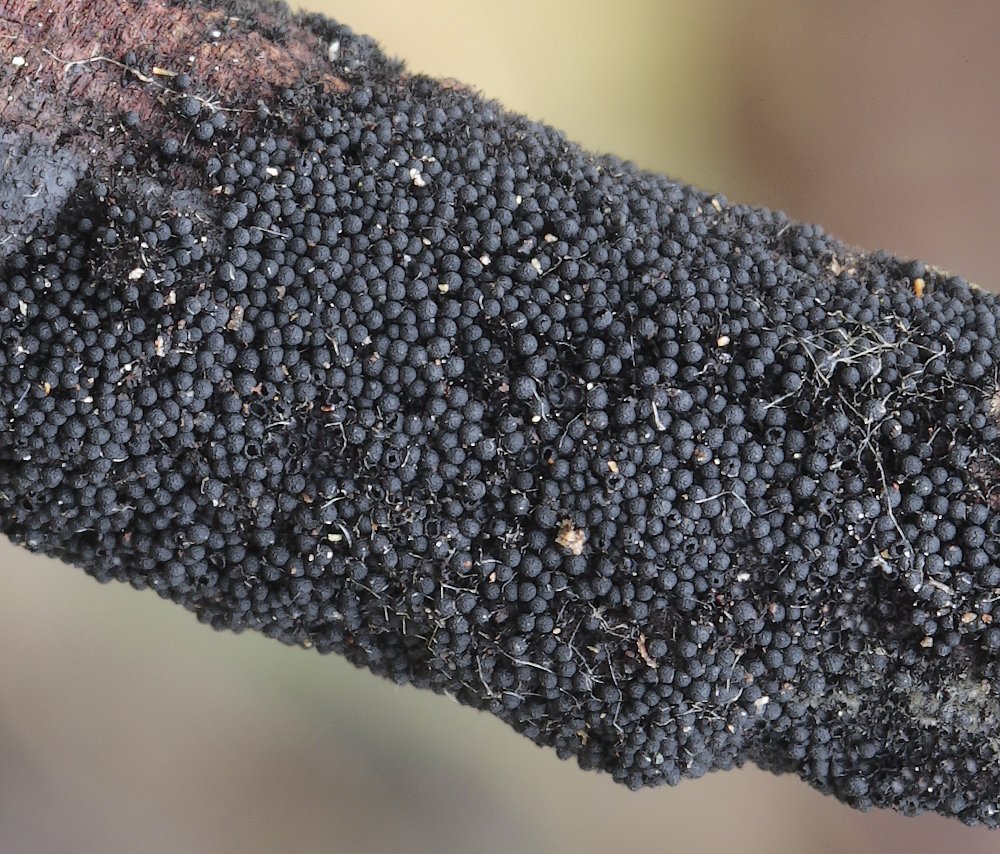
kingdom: Fungi
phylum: Ascomycota
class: Sordariomycetes
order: Coronophorales
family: Chaetosphaerellaceae
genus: Chaetosphaerella
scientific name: Chaetosphaerella phaeostroma
